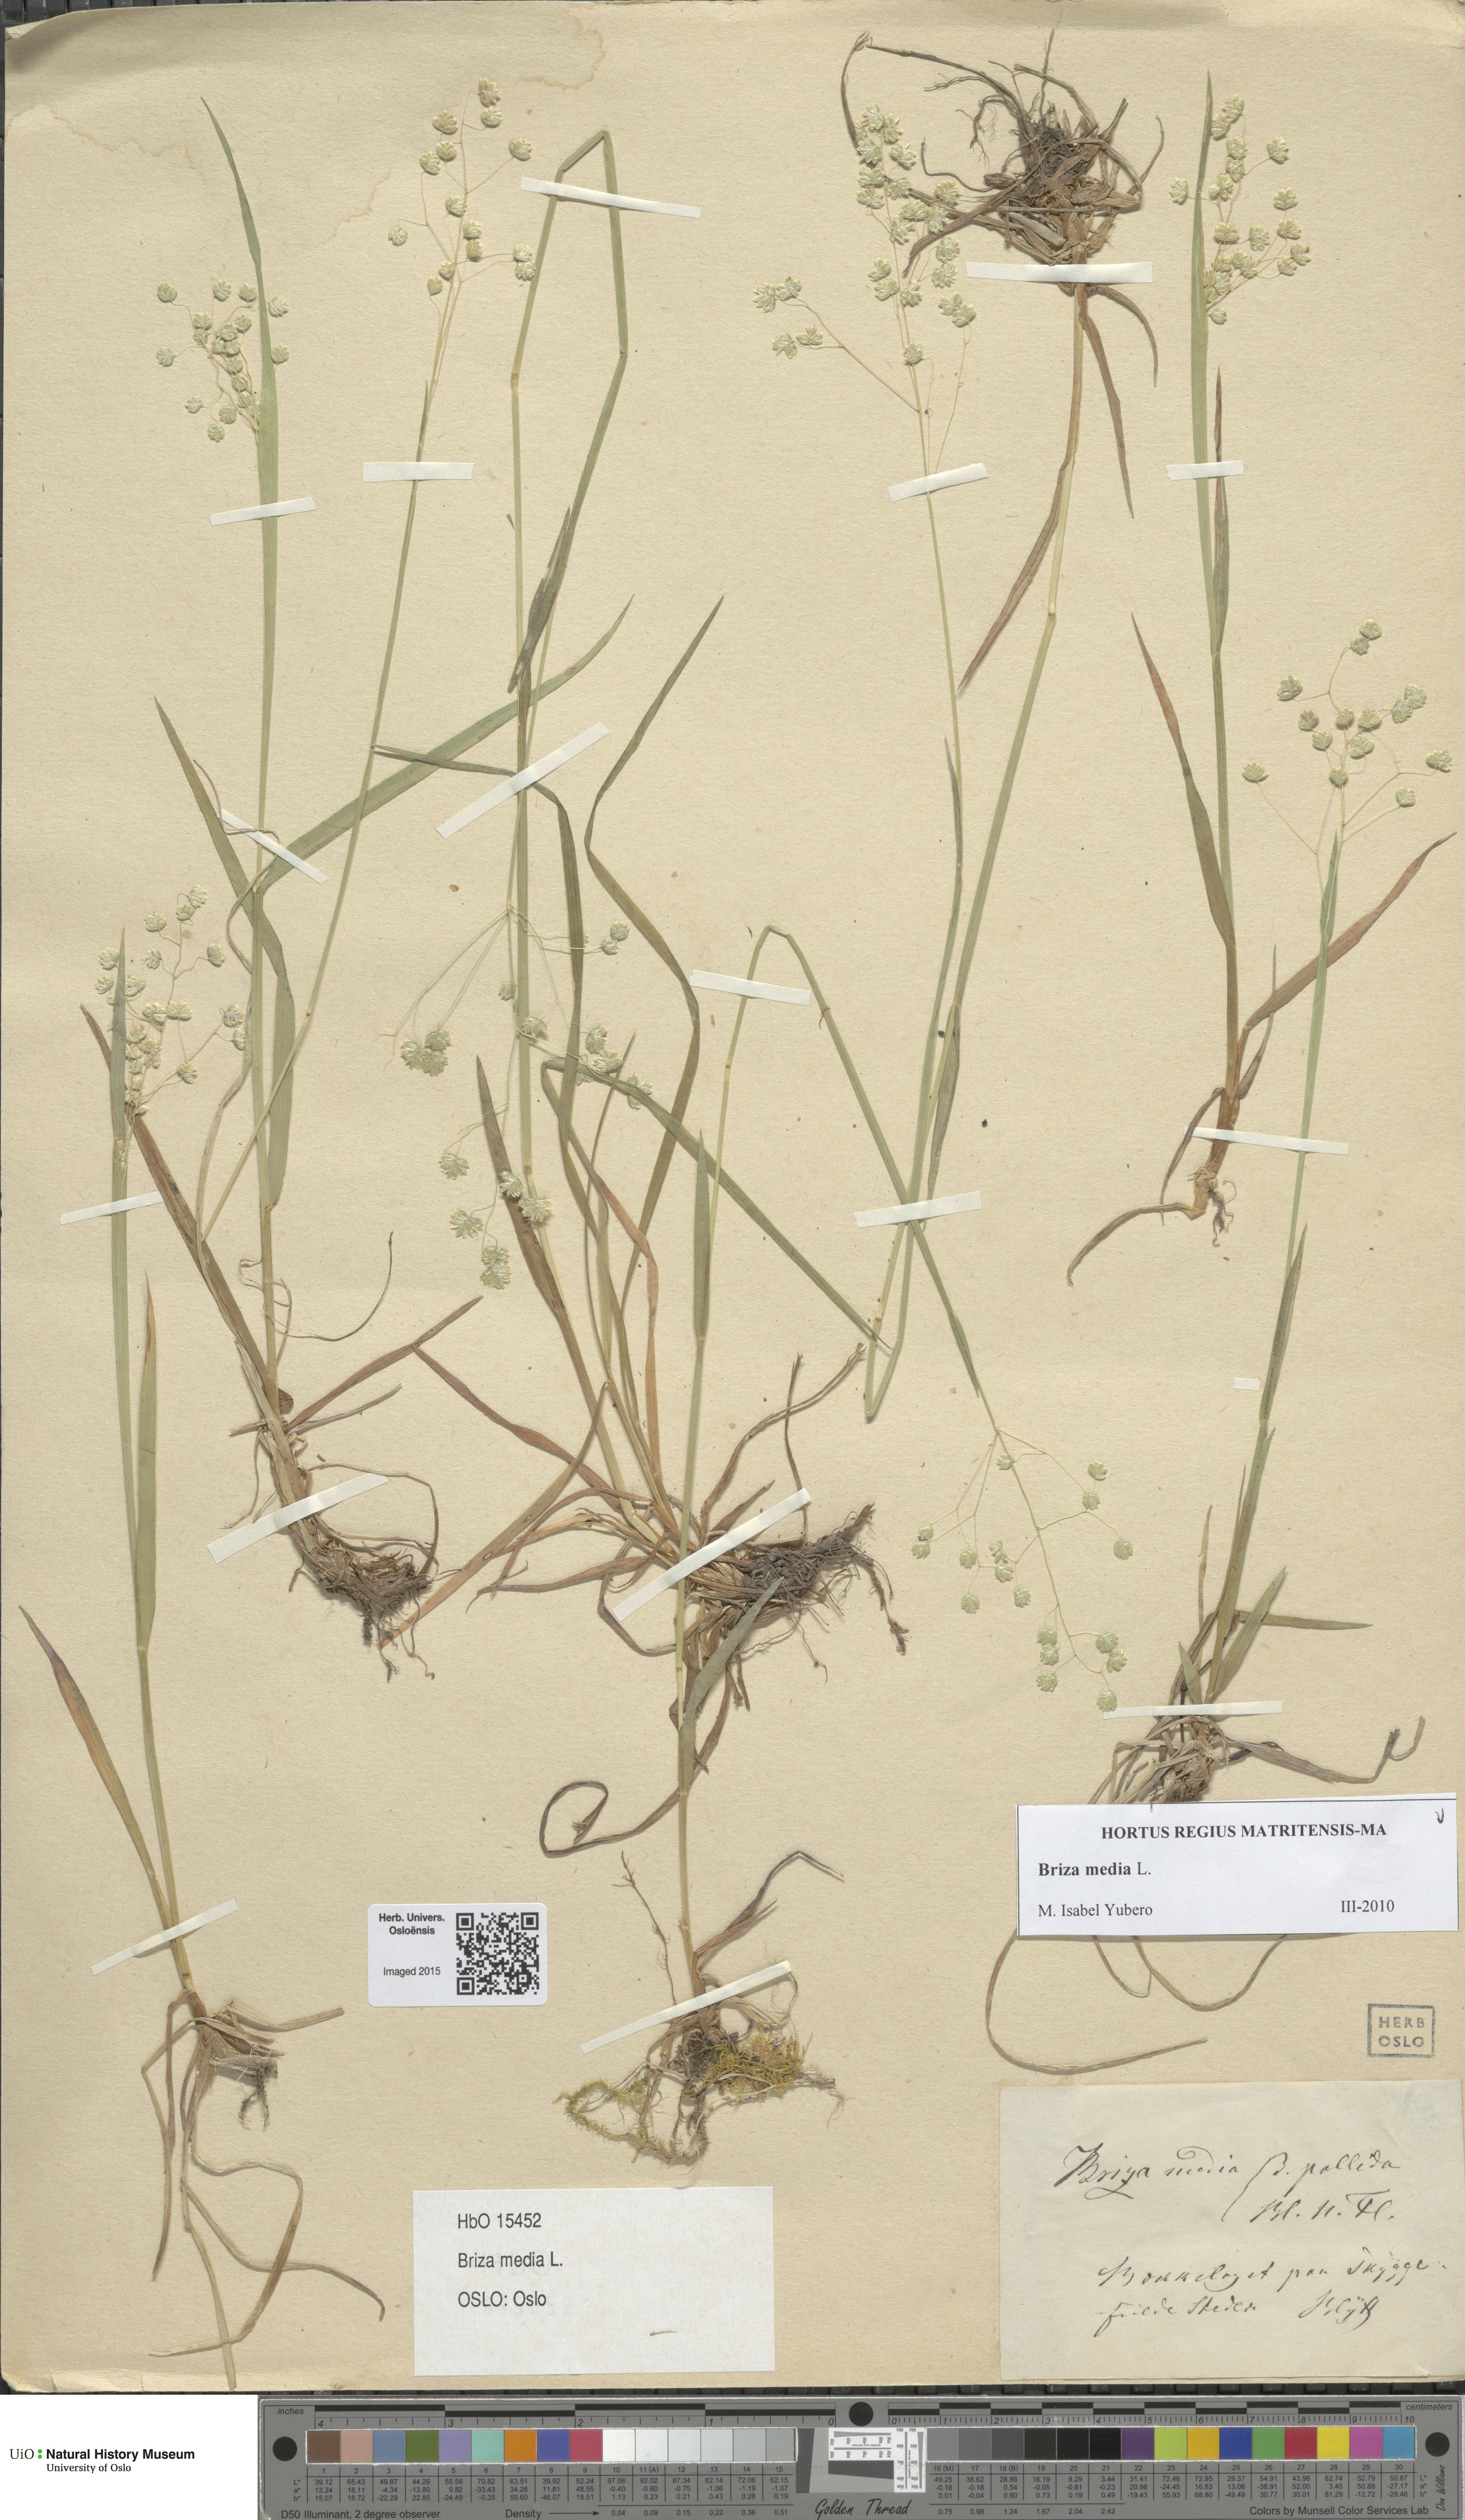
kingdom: Plantae
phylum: Tracheophyta
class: Liliopsida
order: Poales
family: Poaceae
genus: Briza
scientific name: Briza media
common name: Quaking grass
